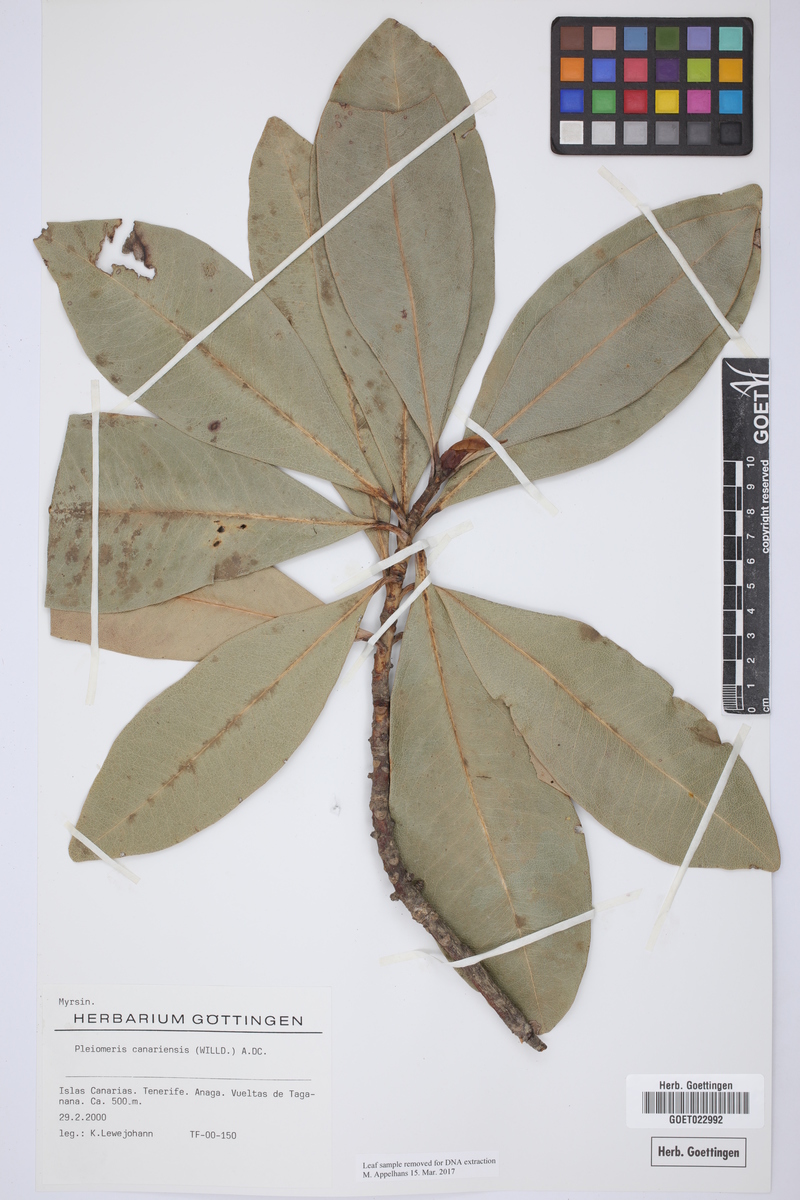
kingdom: Plantae
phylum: Tracheophyta
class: Magnoliopsida
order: Ericales
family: Primulaceae
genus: Pleiomeris
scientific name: Pleiomeris canariensis
